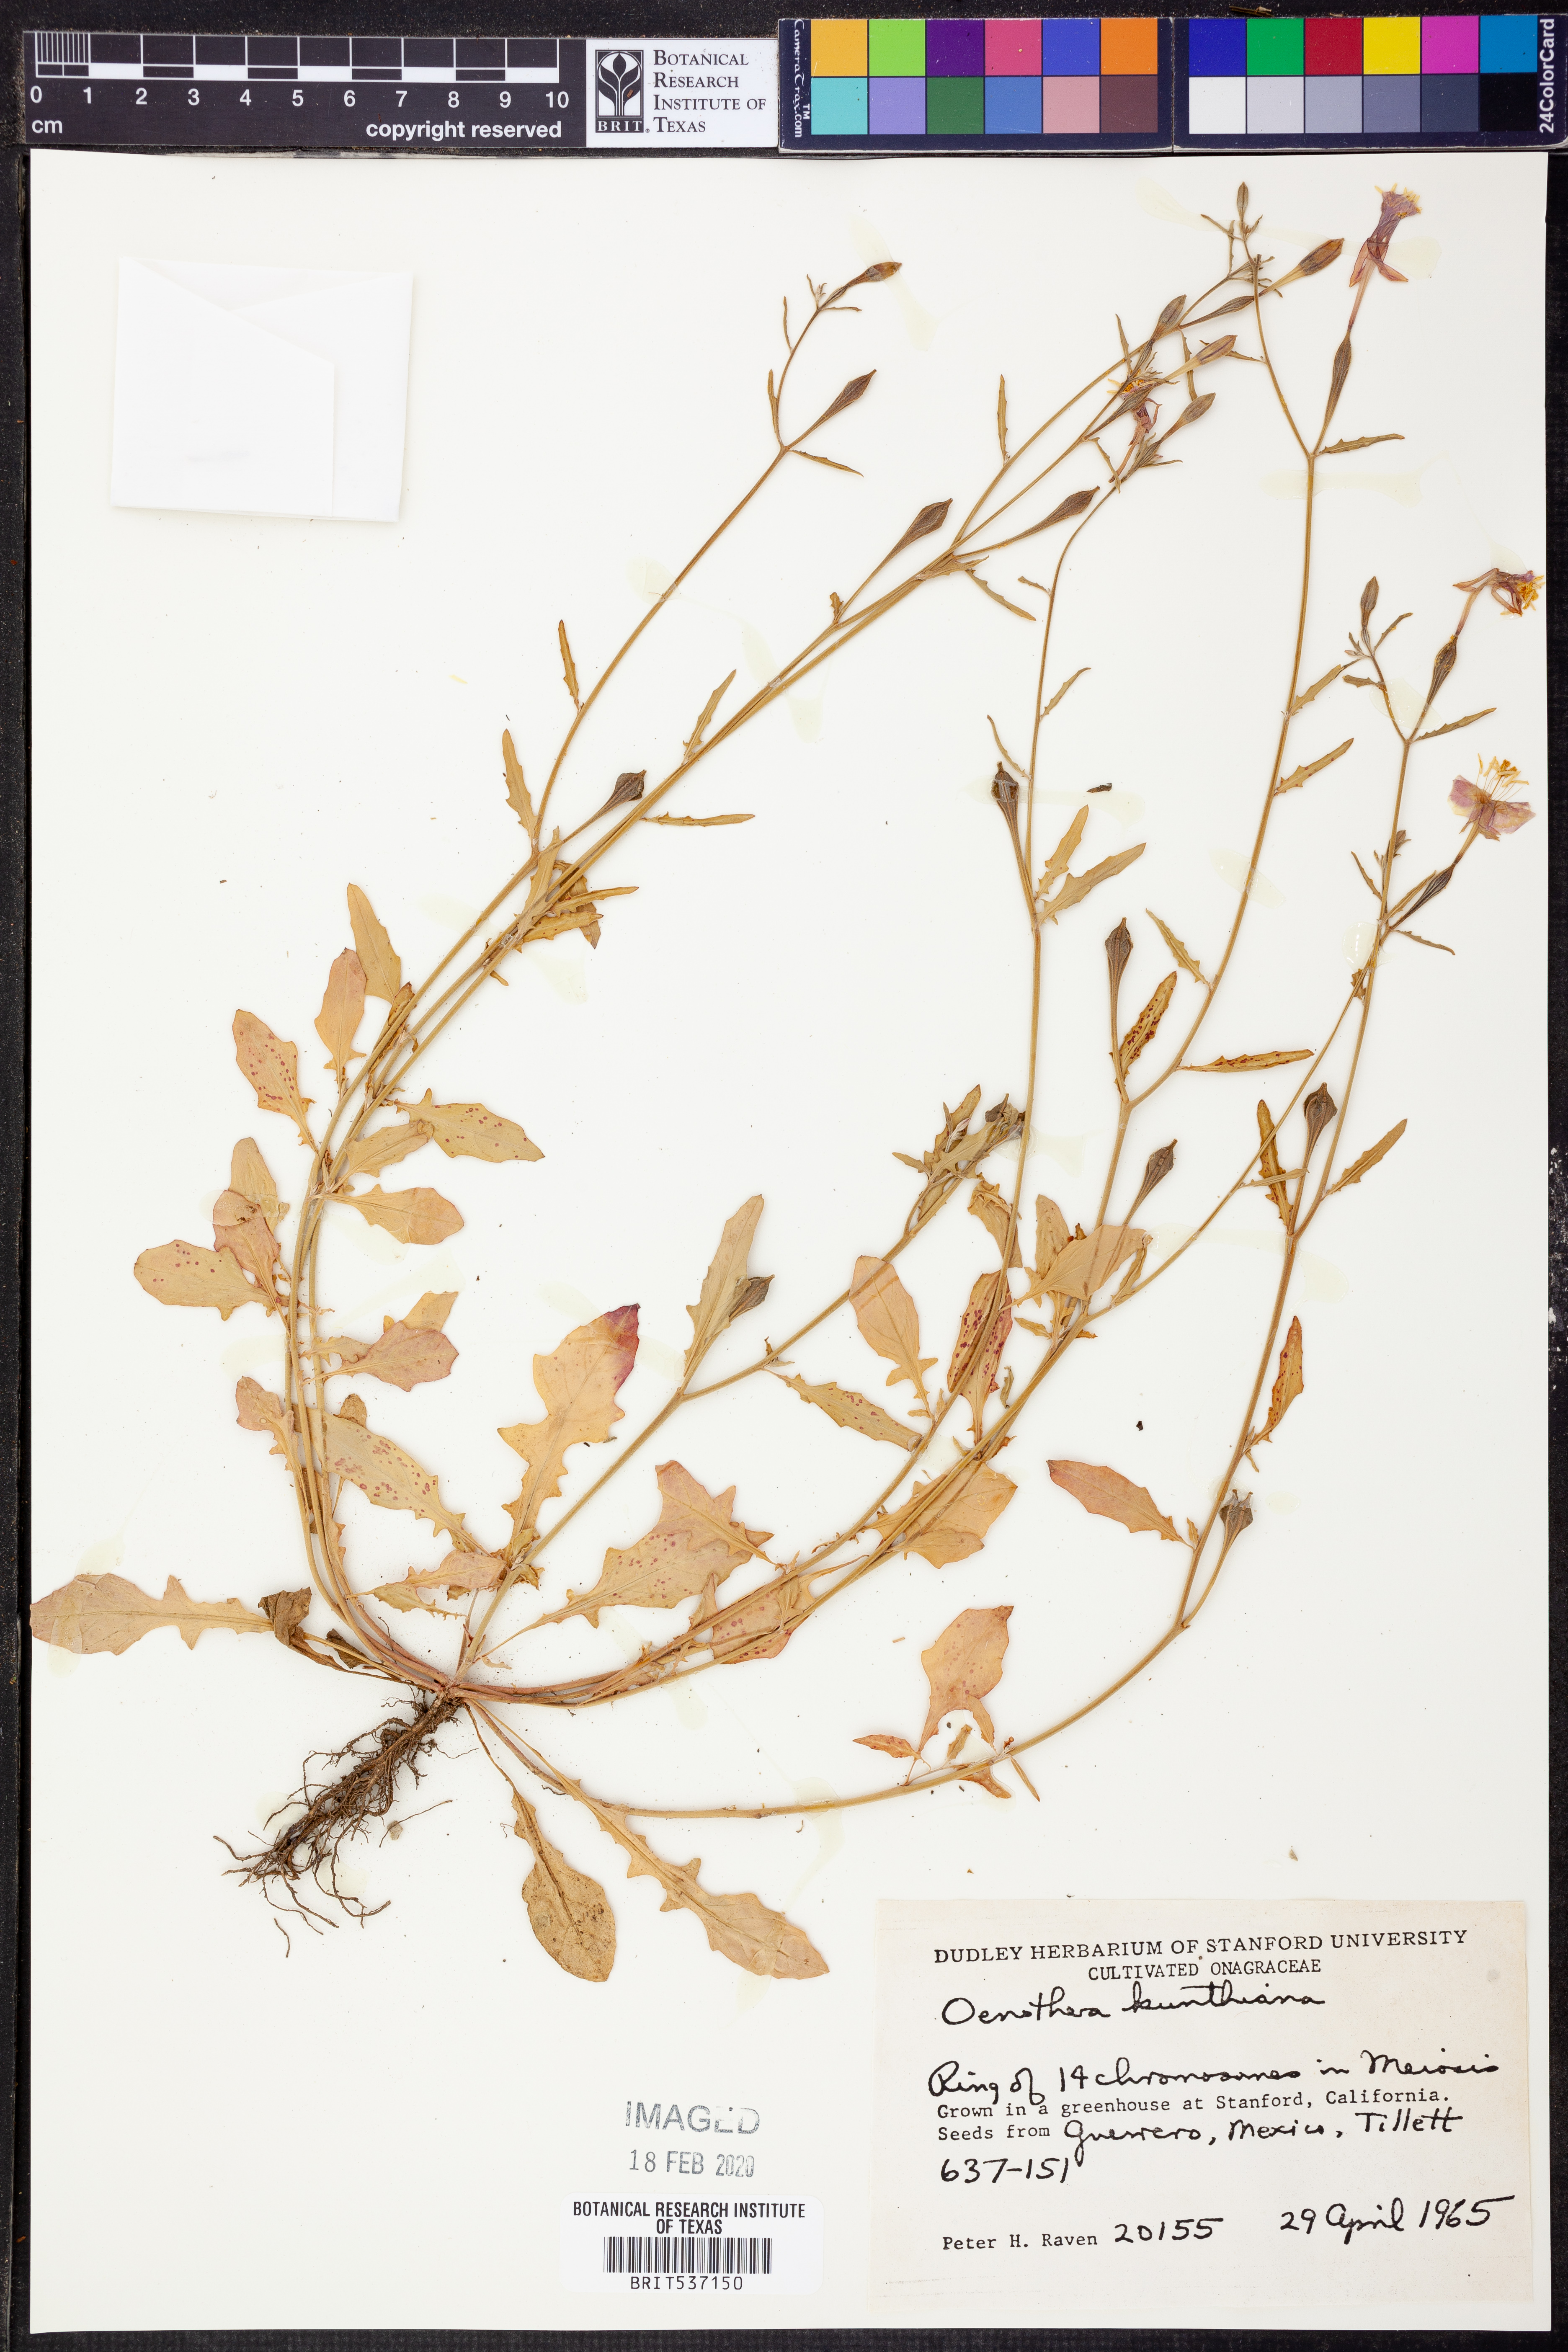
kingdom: Plantae
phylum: Tracheophyta
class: Magnoliopsida
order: Myrtales
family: Onagraceae
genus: Oenothera
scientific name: Oenothera
